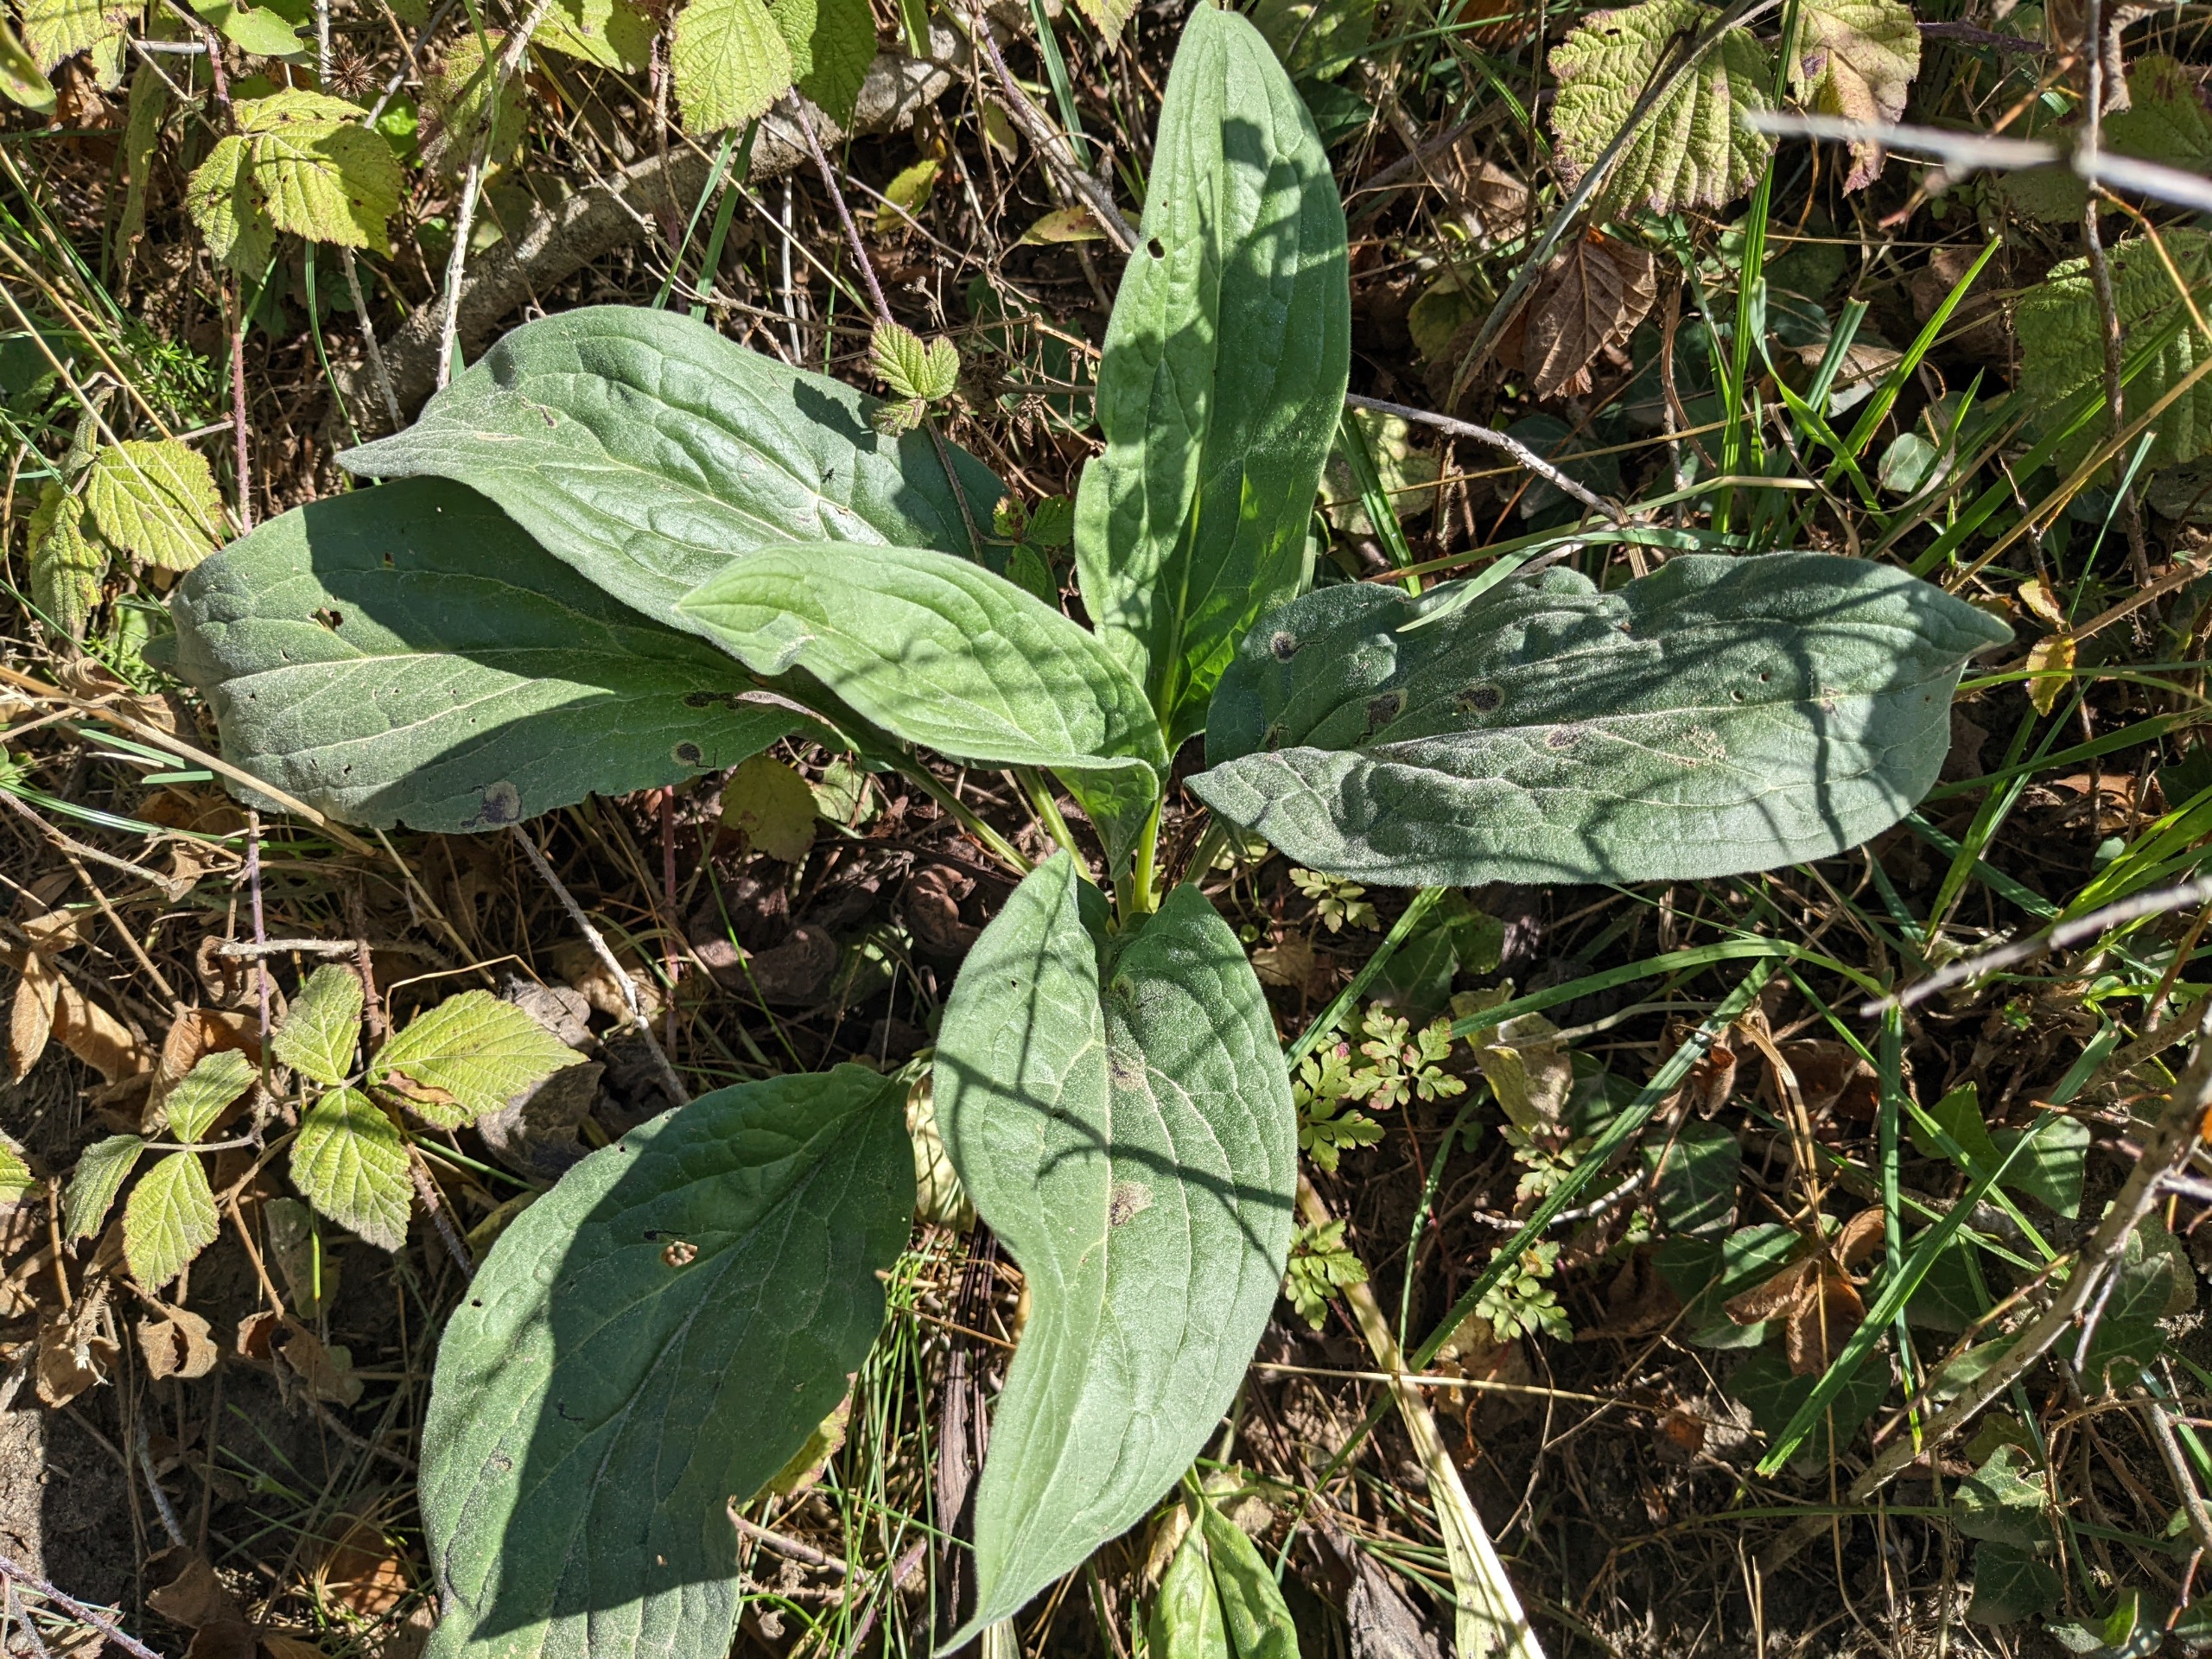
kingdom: Plantae
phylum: Tracheophyta
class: Magnoliopsida
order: Boraginales
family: Boraginaceae
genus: Cynoglossum
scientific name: Cynoglossum officinale
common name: Hundetunge
